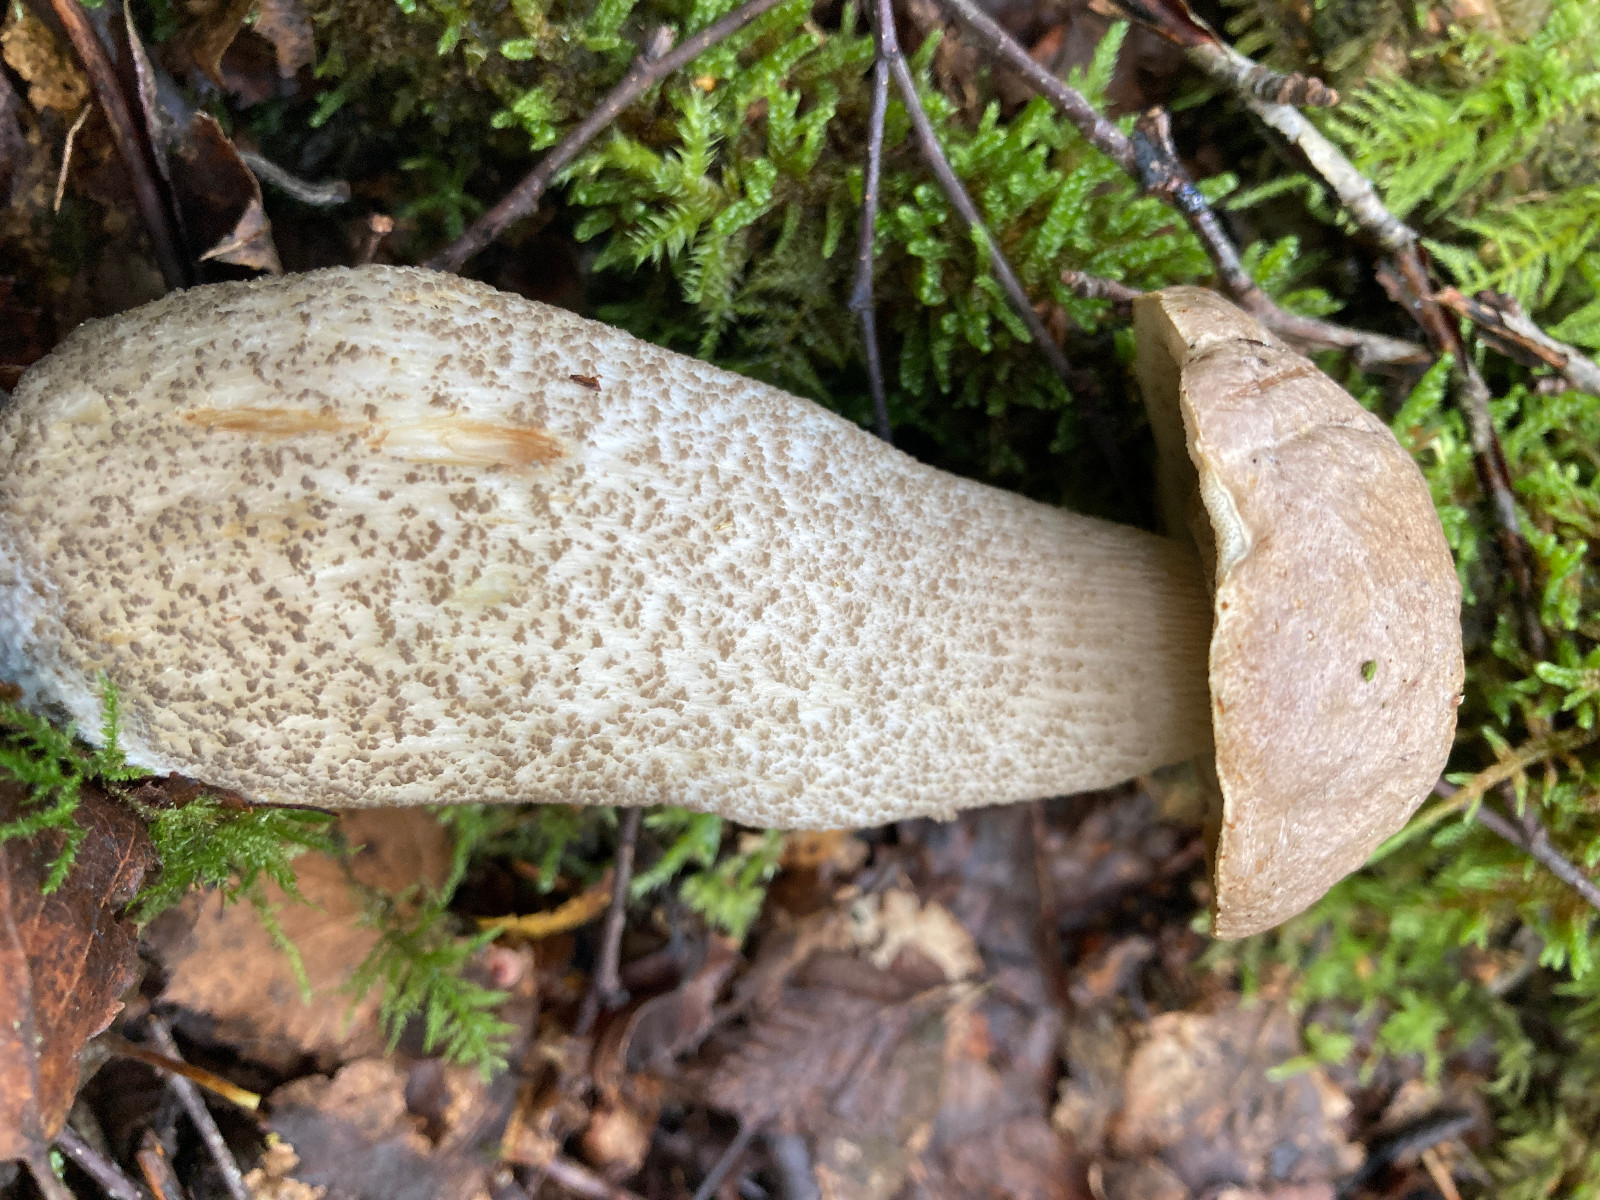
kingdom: Fungi
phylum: Basidiomycota
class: Agaricomycetes
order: Boletales
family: Boletaceae
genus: Leccinum
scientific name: Leccinum
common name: skælrørhat
